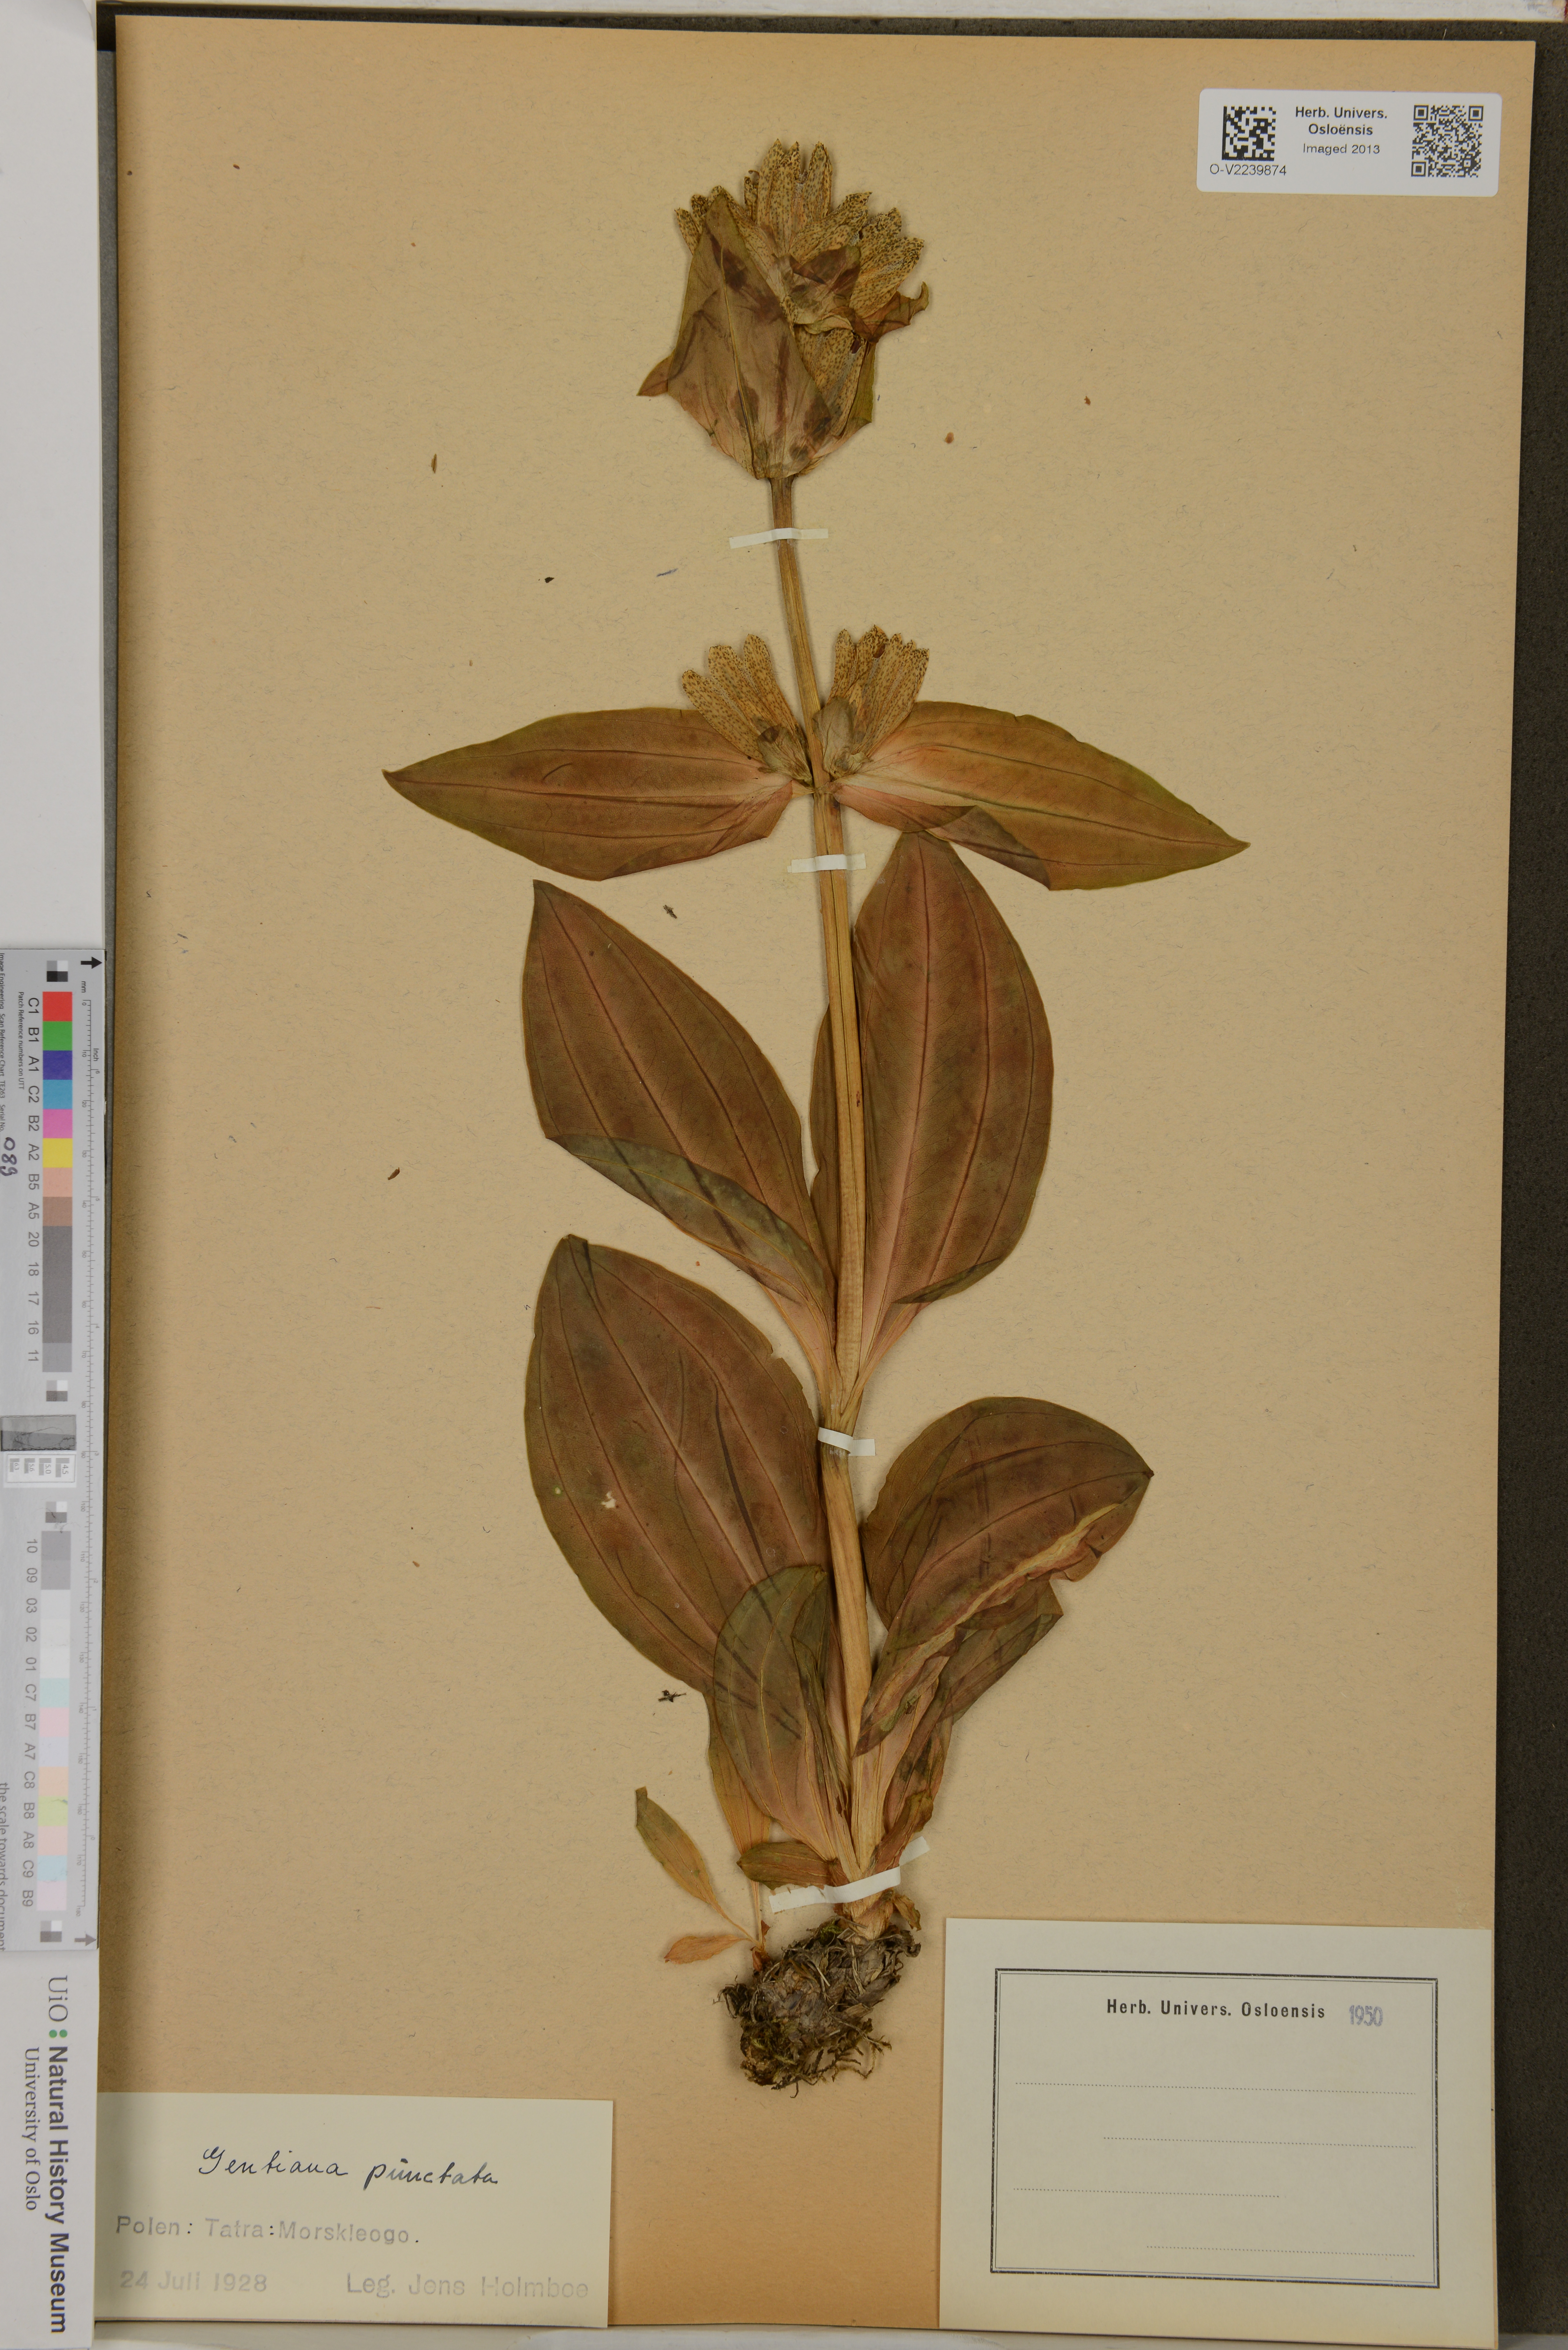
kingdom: Plantae
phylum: Tracheophyta
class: Magnoliopsida
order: Gentianales
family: Gentianaceae
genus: Gentiana
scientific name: Gentiana punctata
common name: Spotted gentian
